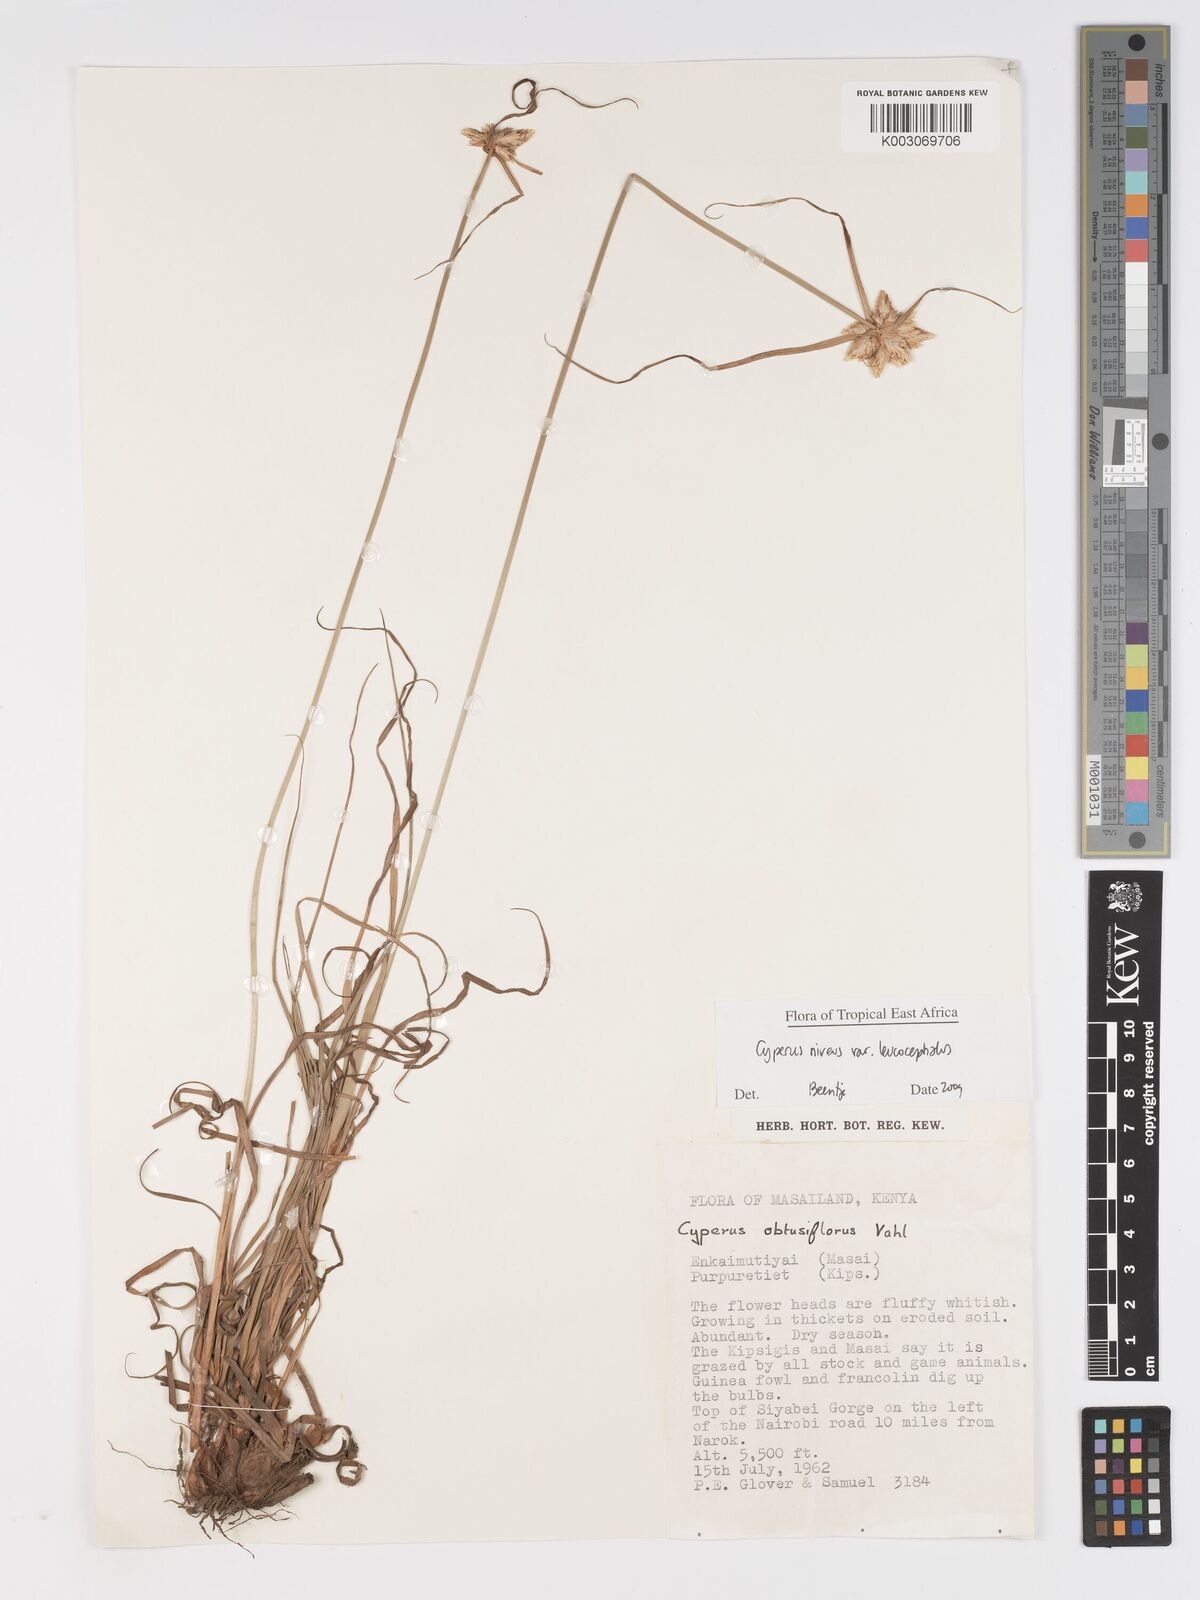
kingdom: Plantae
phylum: Tracheophyta
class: Liliopsida
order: Poales
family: Cyperaceae
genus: Cyperus
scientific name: Cyperus niveus
